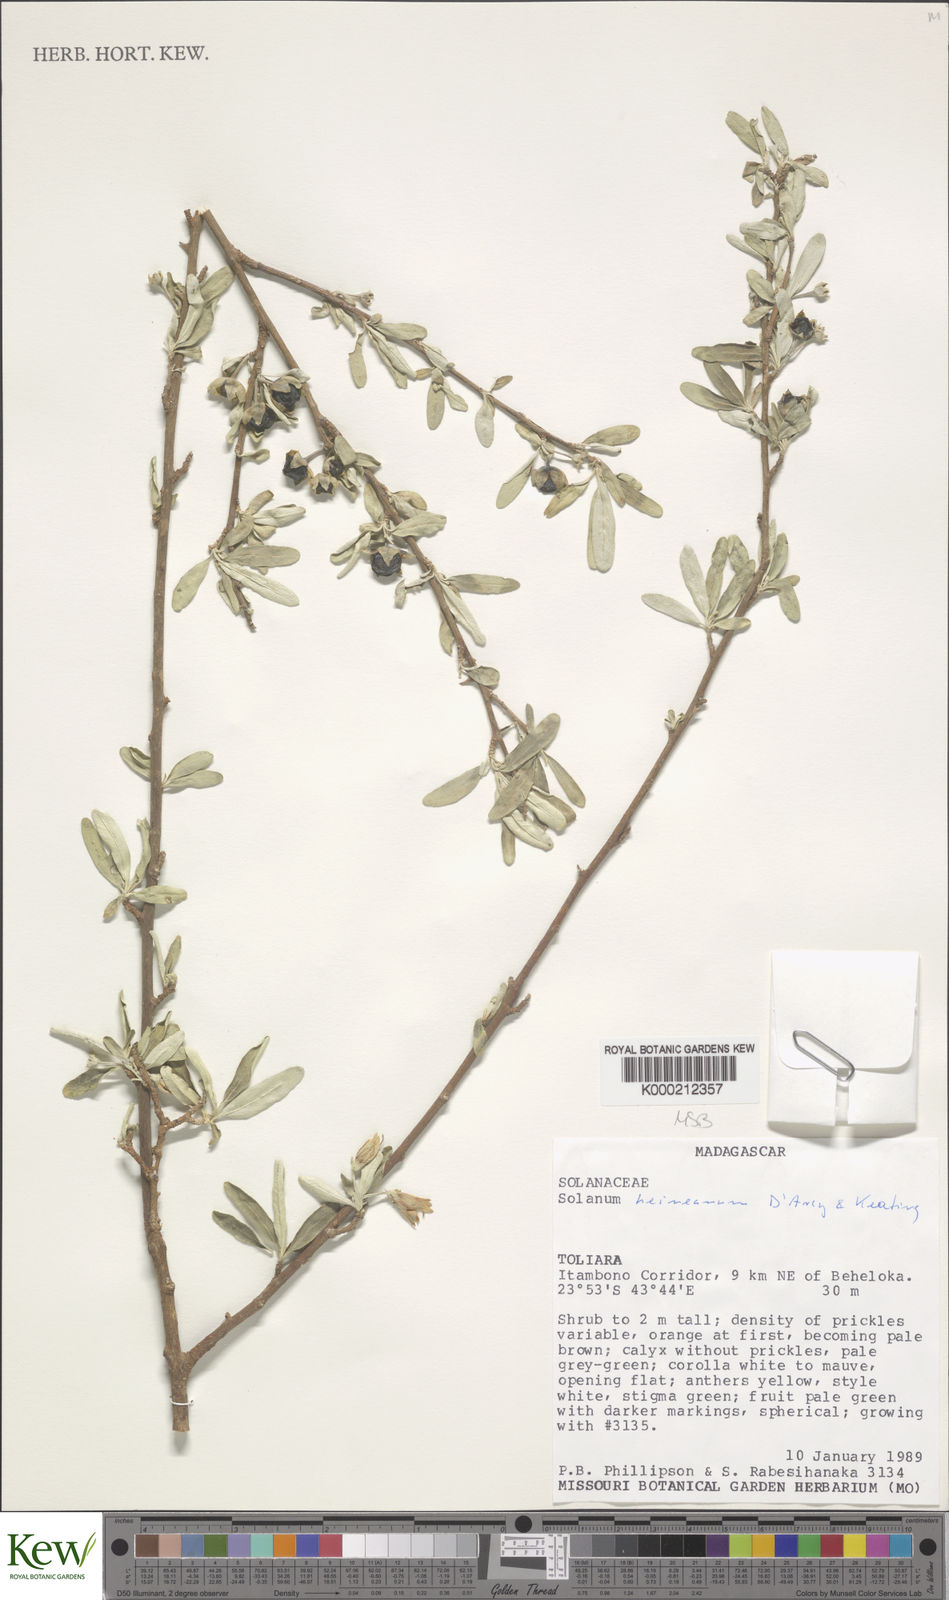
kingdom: Plantae
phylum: Tracheophyta
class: Magnoliopsida
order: Solanales
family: Solanaceae
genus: Solanum
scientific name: Solanum heinianum
